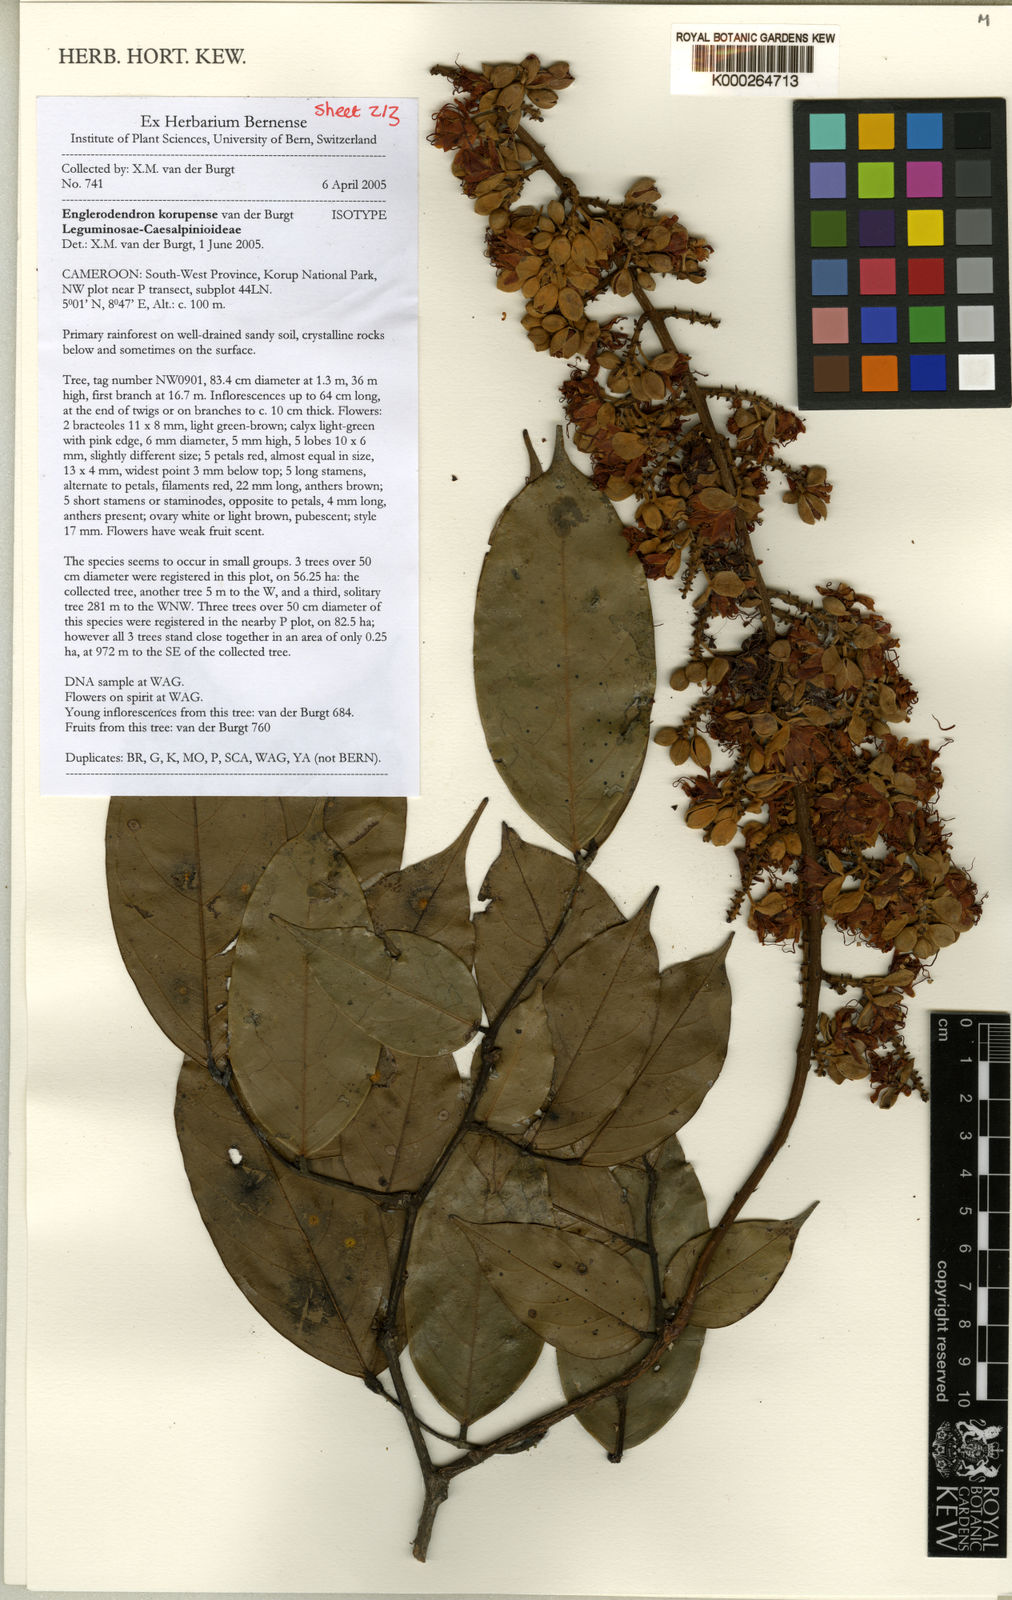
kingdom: Plantae
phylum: Tracheophyta
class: Magnoliopsida
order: Fabales
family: Fabaceae
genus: Englerodendron
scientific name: Englerodendron korupense
